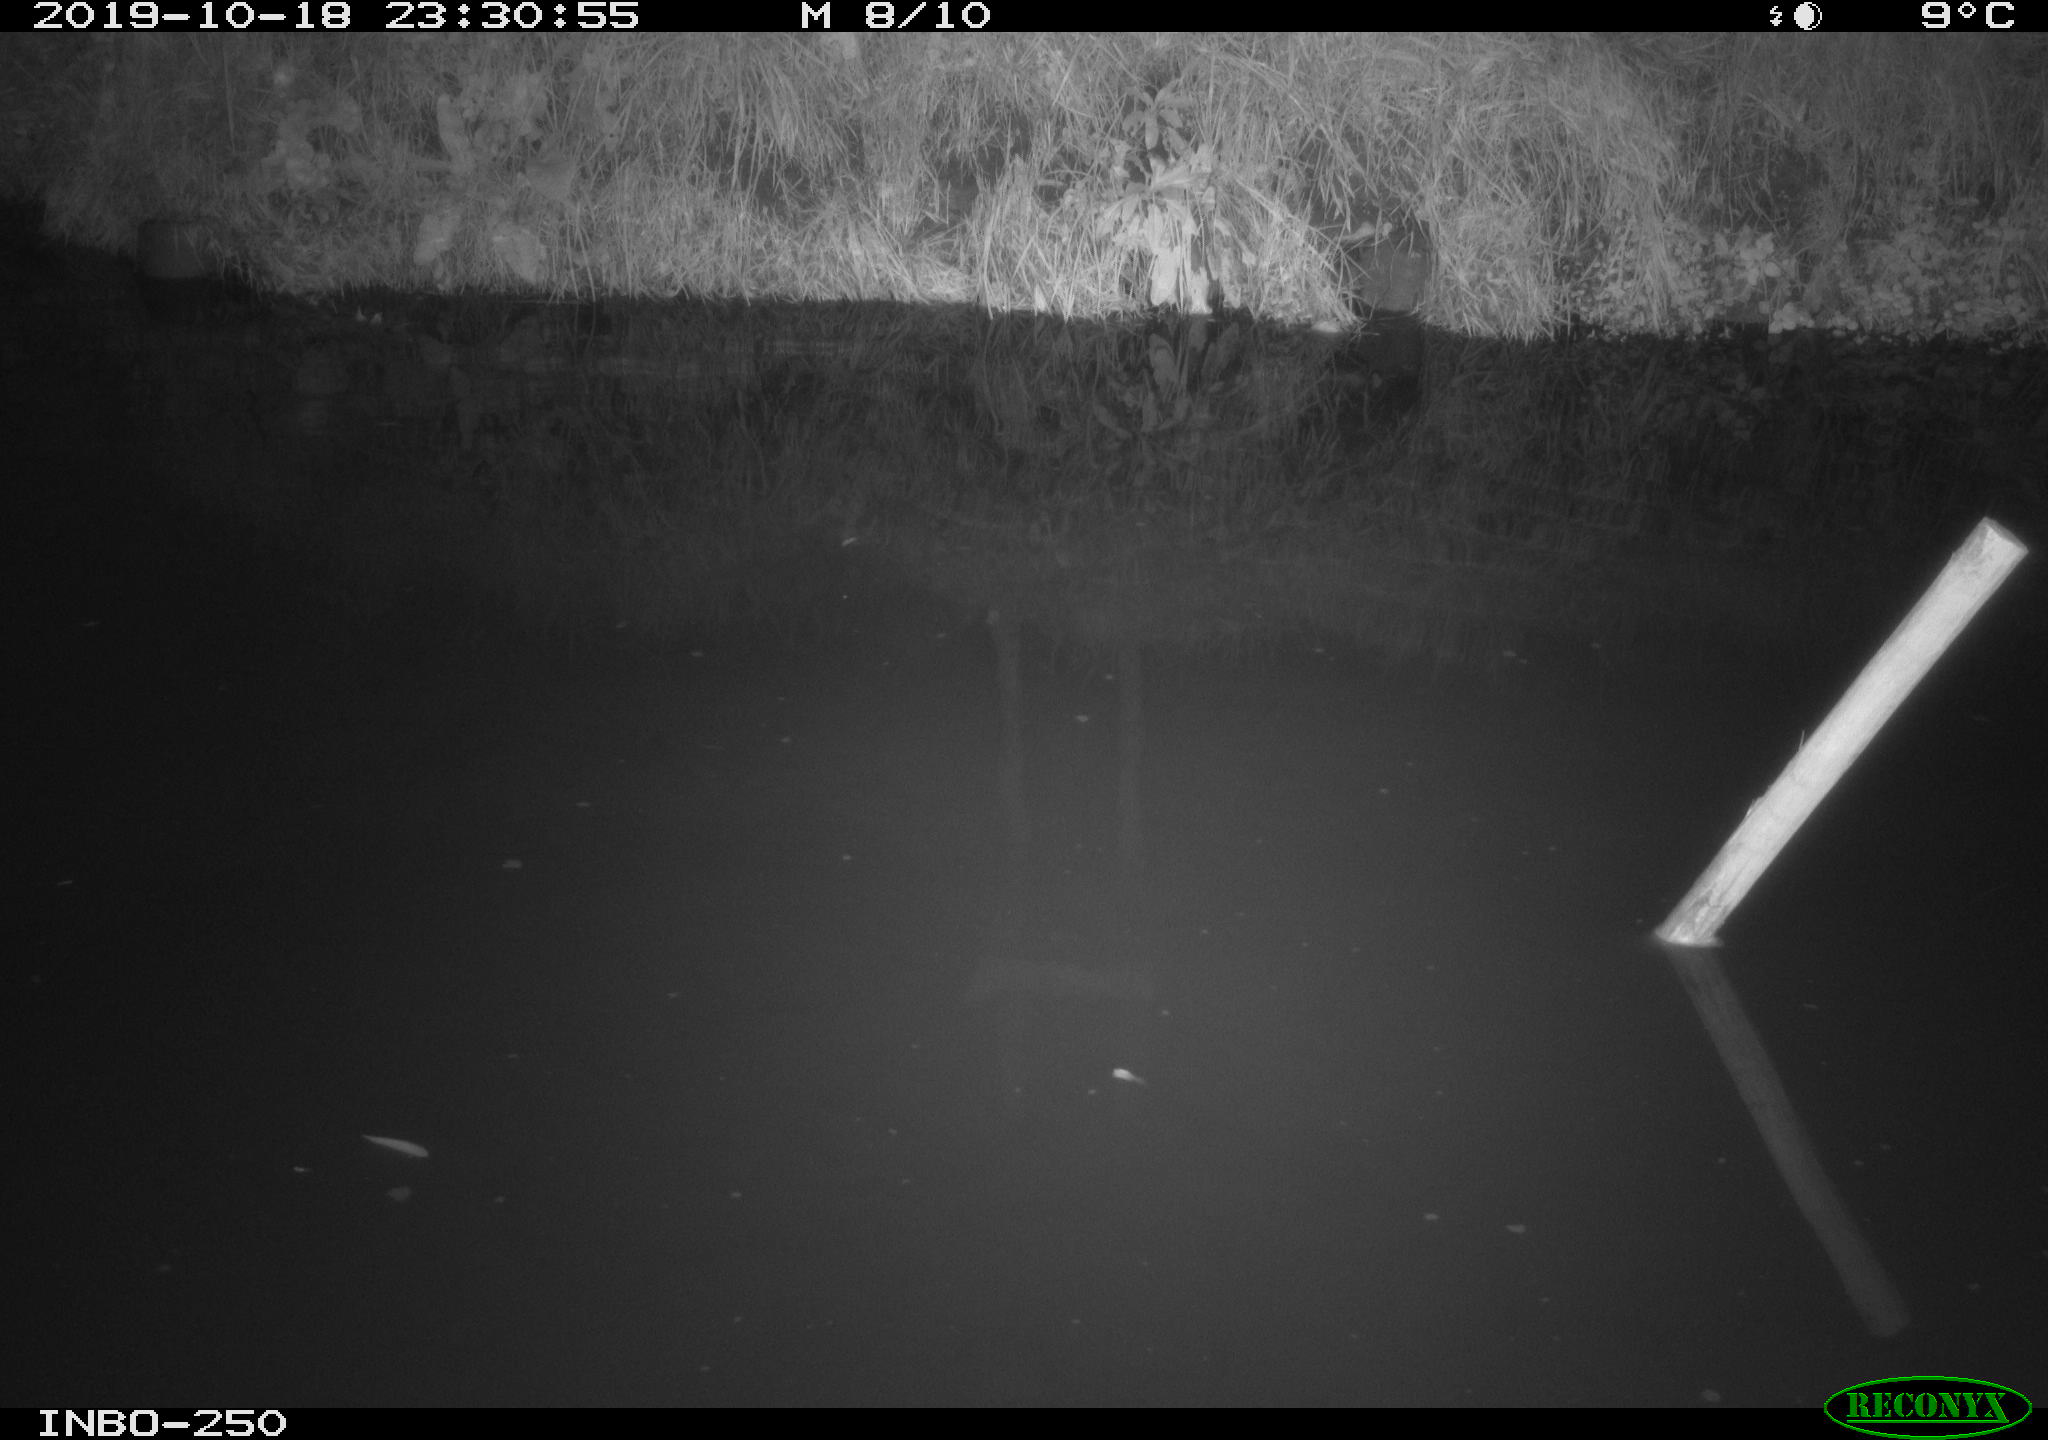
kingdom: Animalia
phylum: Chordata
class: Aves
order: Anseriformes
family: Anatidae
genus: Anas
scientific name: Anas platyrhynchos
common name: Mallard
